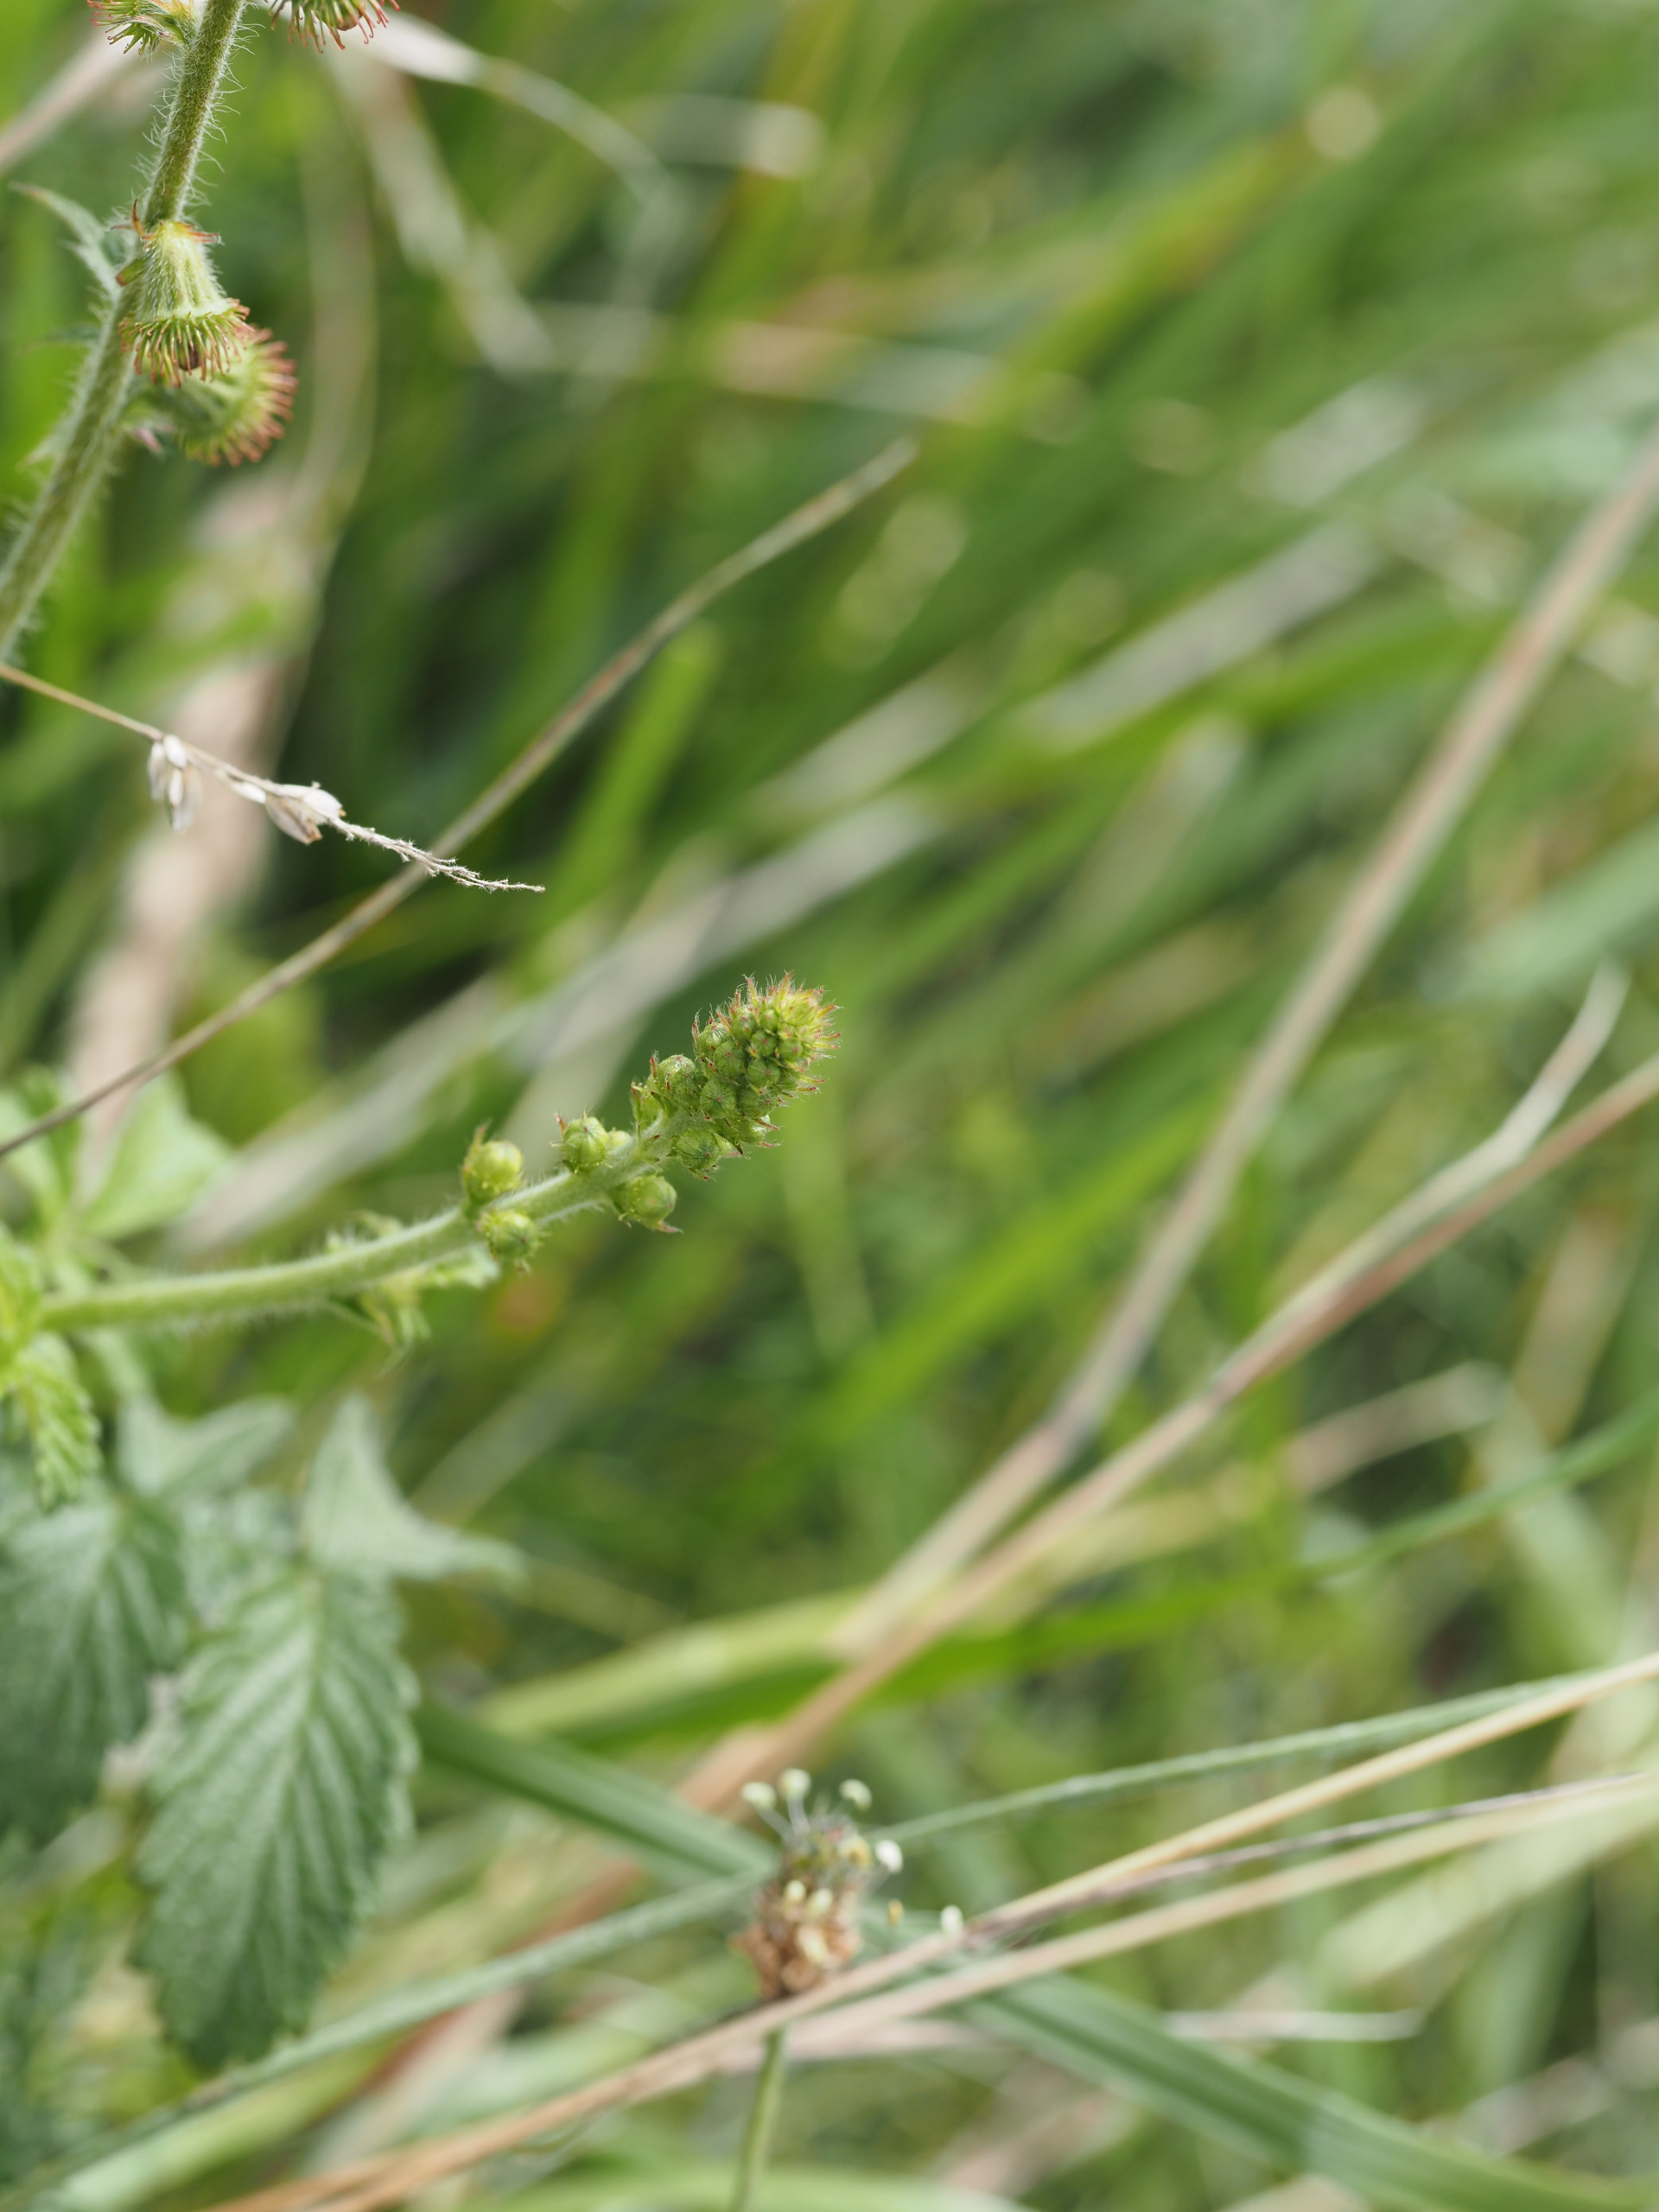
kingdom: Plantae
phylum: Tracheophyta
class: Magnoliopsida
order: Rosales
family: Rosaceae
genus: Agrimonia
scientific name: Agrimonia eupatoria
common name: Almindelig agermåne
